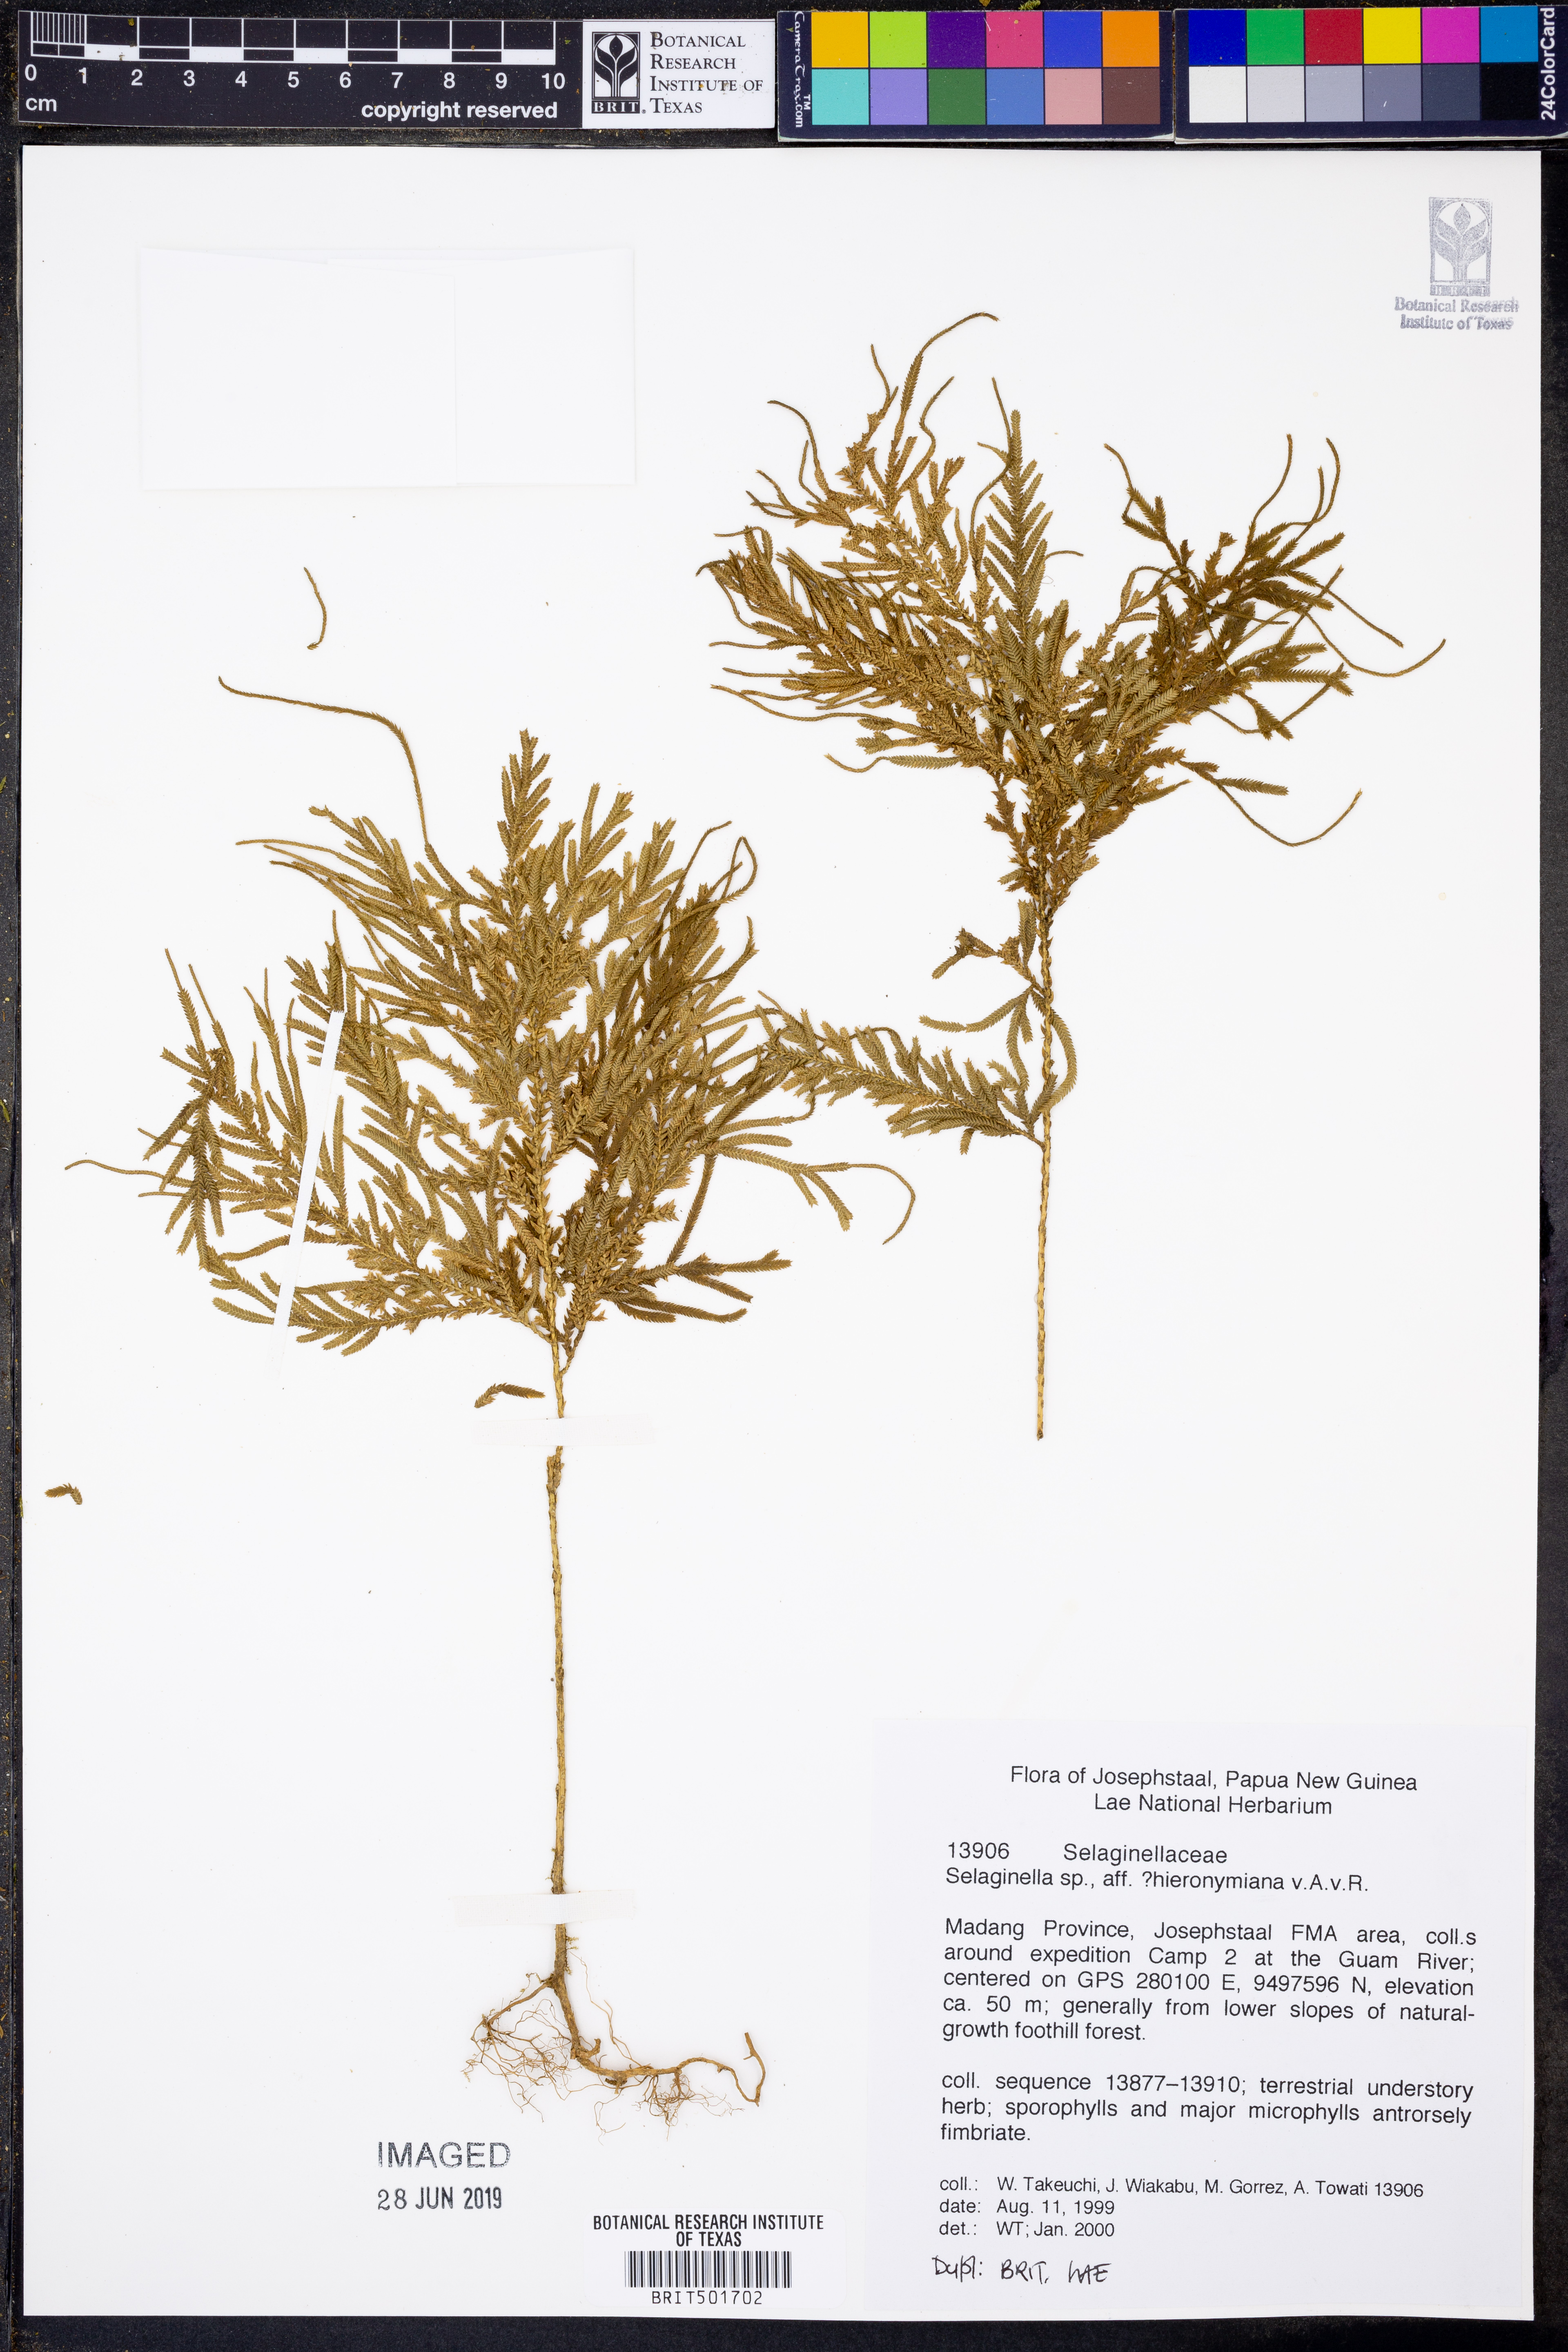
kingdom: Plantae
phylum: Tracheophyta
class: Lycopodiopsida
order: Selaginellales
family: Selaginellaceae
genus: Selaginella
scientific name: Selaginella hieronymiana
